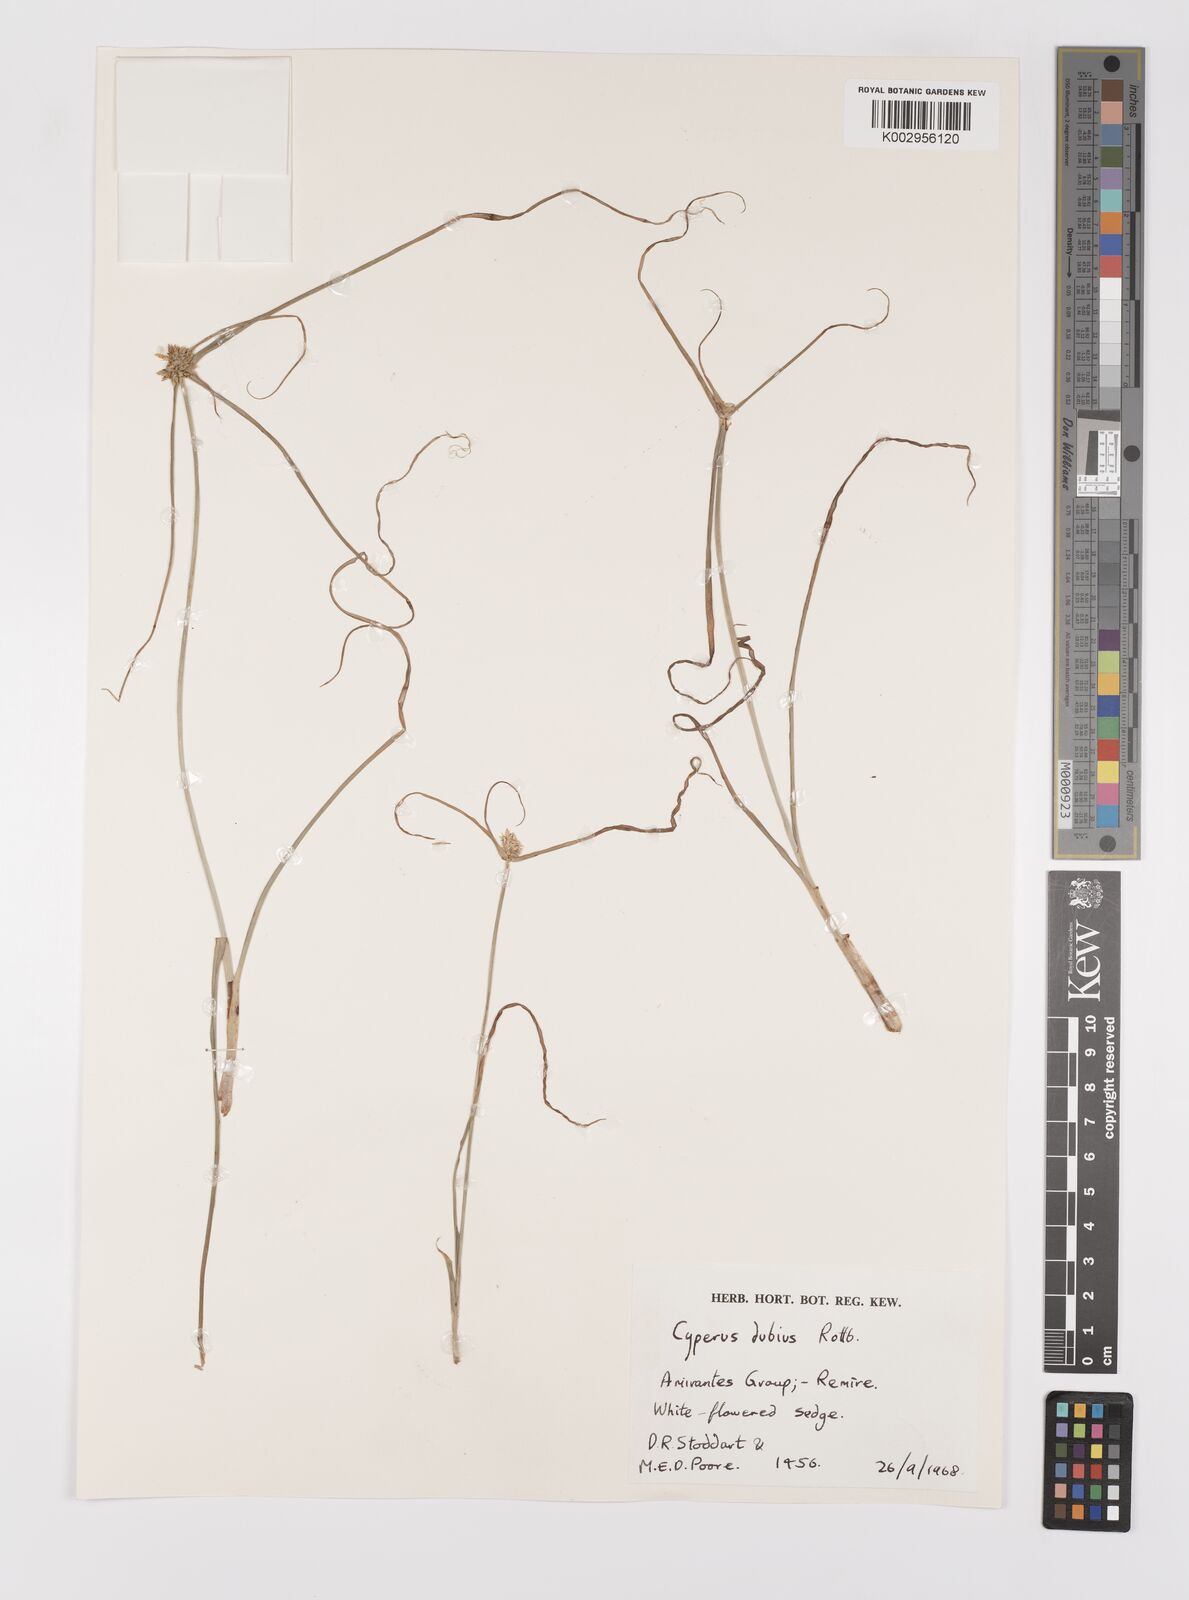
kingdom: Plantae
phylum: Tracheophyta
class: Liliopsida
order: Poales
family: Cyperaceae
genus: Cyperus
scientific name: Cyperus dubius
